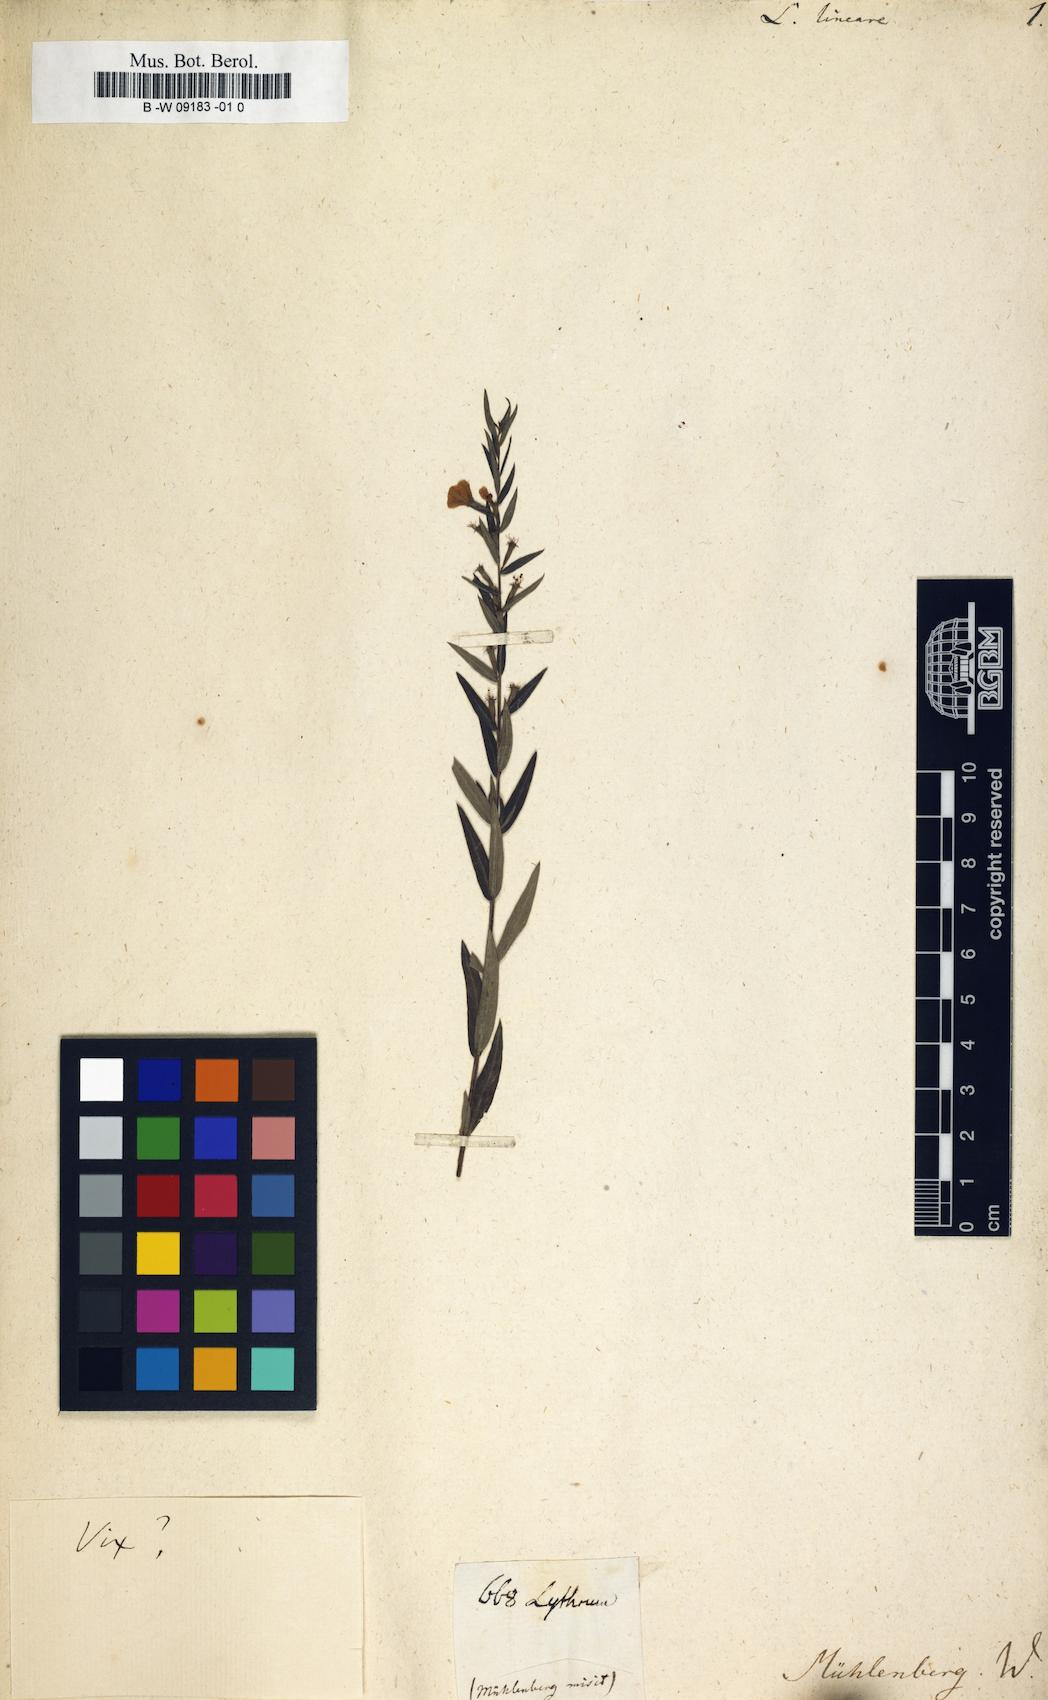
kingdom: Plantae
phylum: Tracheophyta
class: Magnoliopsida
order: Myrtales
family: Lythraceae
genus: Lythrum
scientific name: Lythrum lineare
